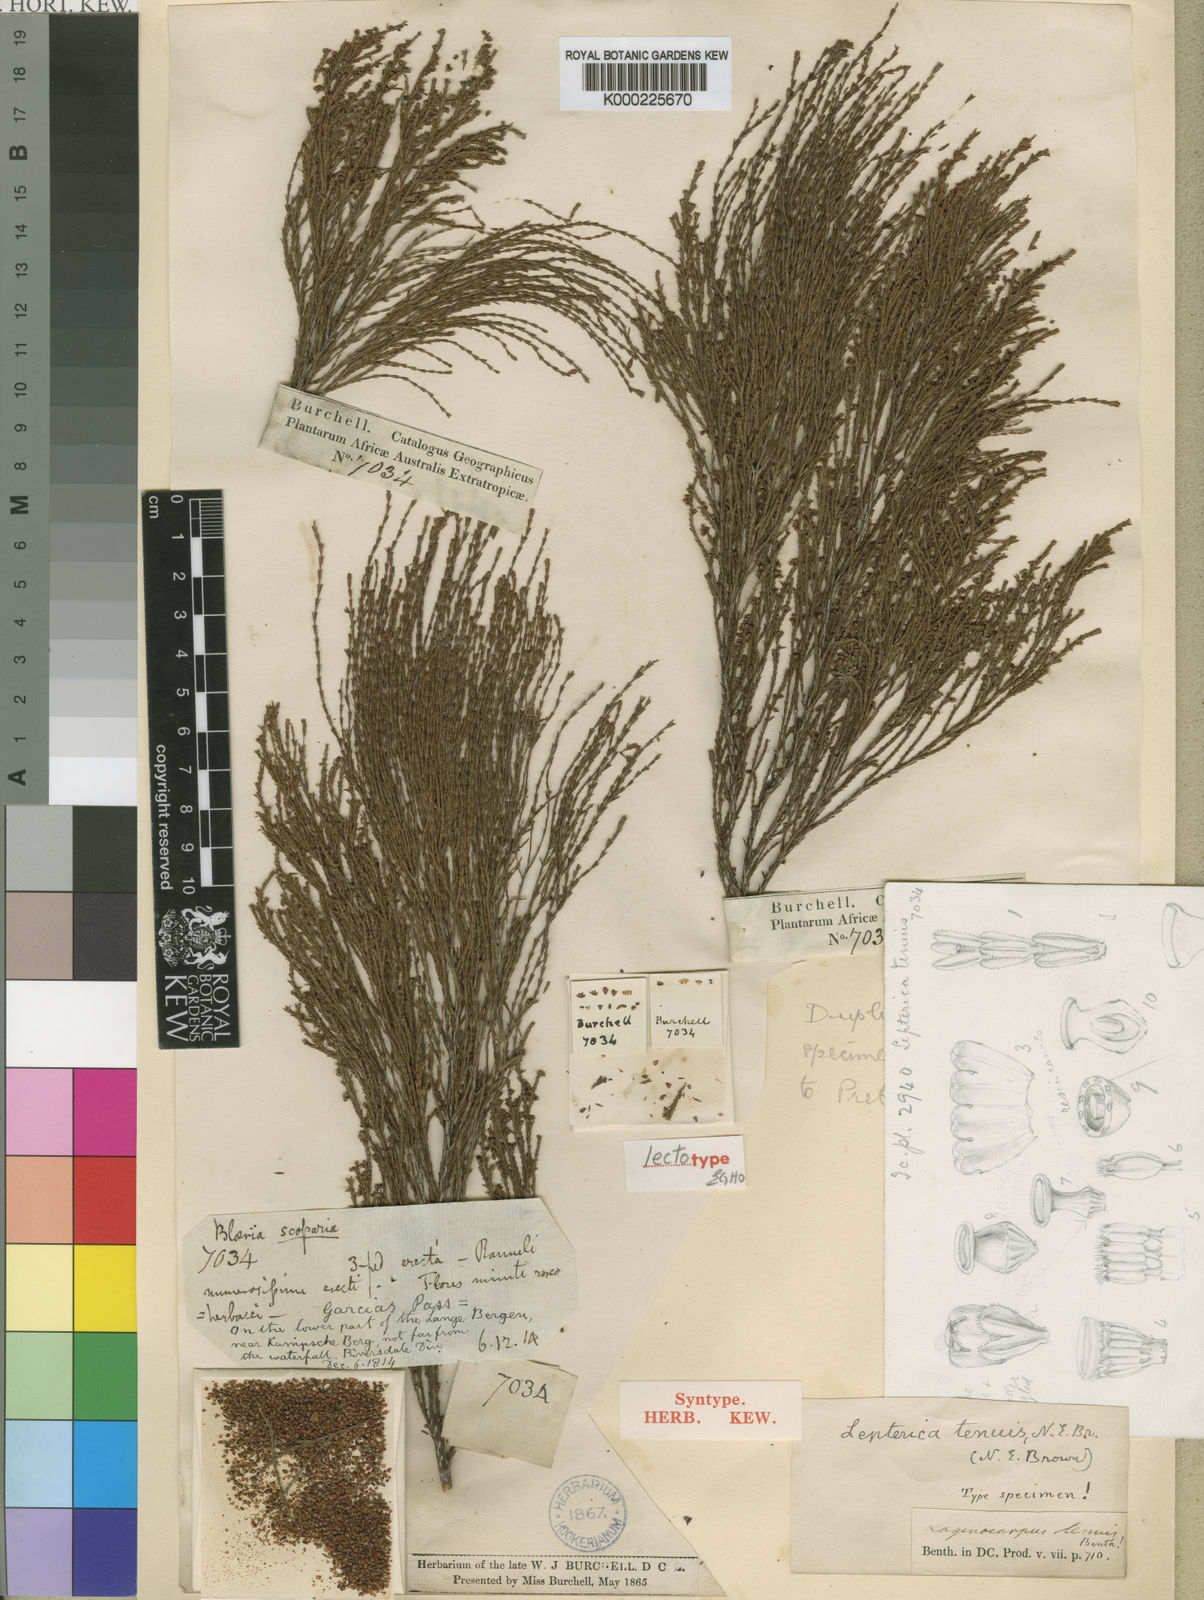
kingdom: Plantae
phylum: Tracheophyta
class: Magnoliopsida
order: Ericales
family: Ericaceae
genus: Erica
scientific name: Erica miniscula
